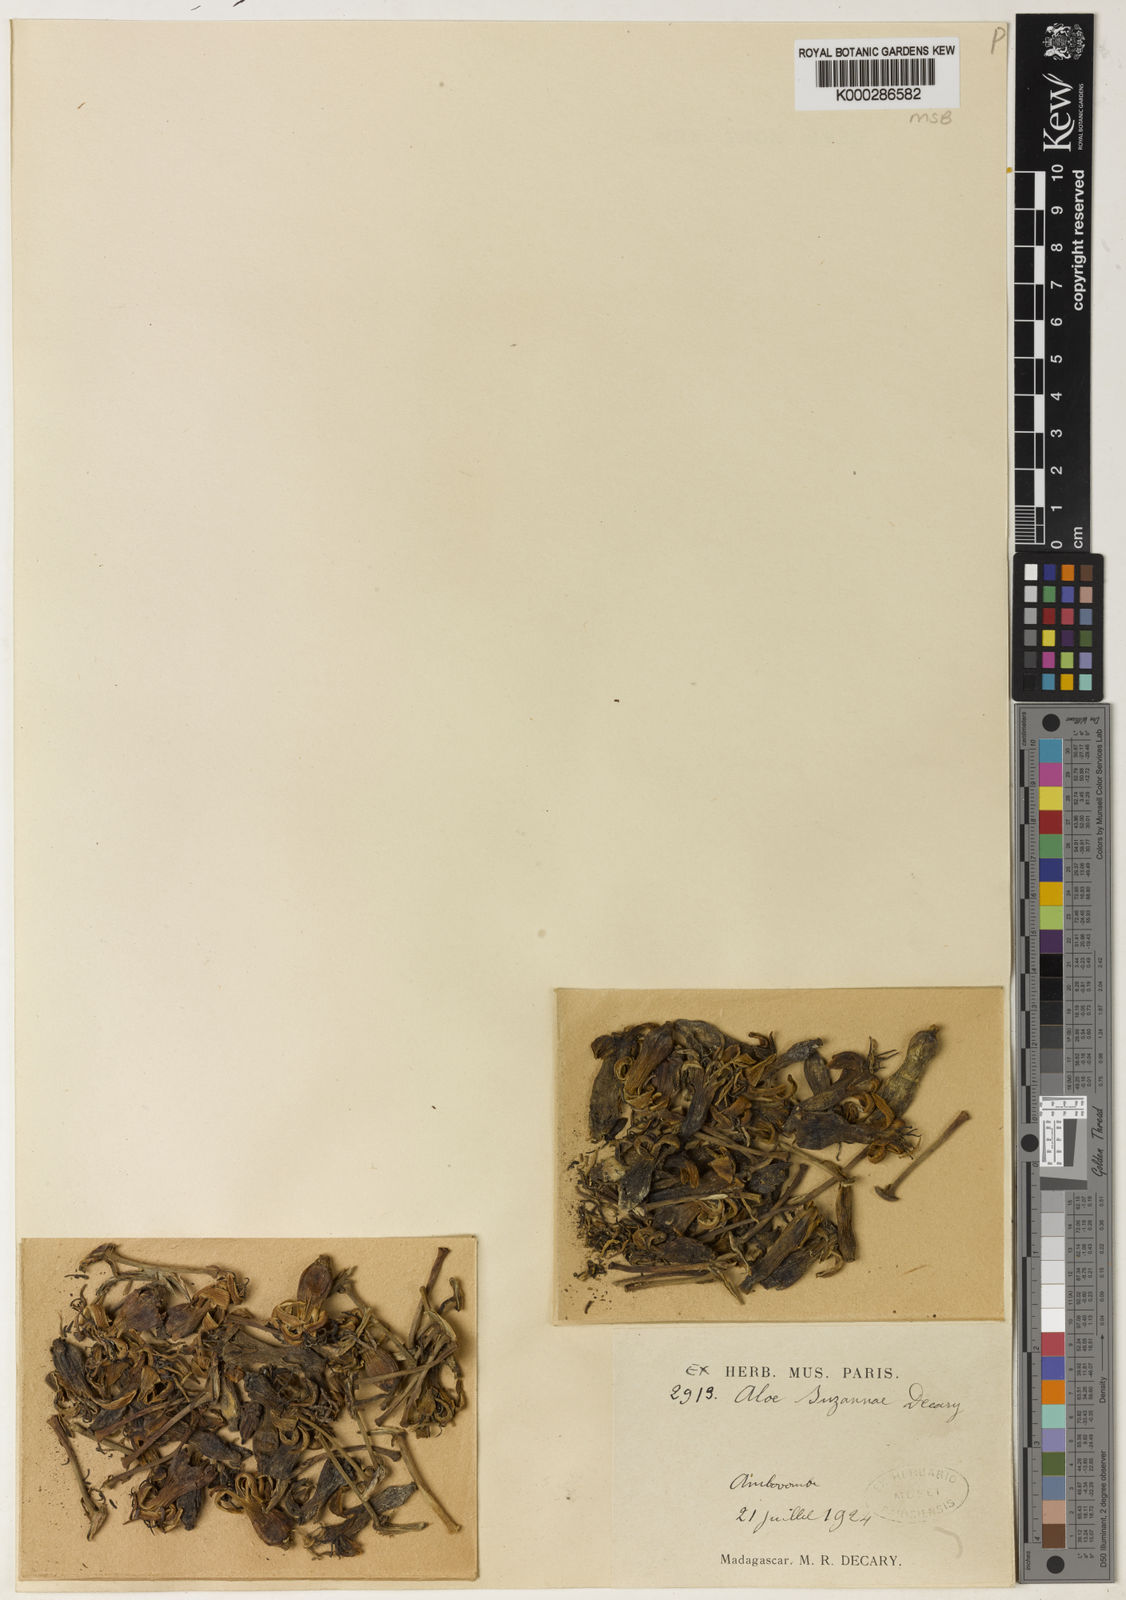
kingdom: Plantae
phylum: Tracheophyta
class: Liliopsida
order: Asparagales
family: Asphodelaceae
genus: Aloestrela
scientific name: Aloestrela suzannae
